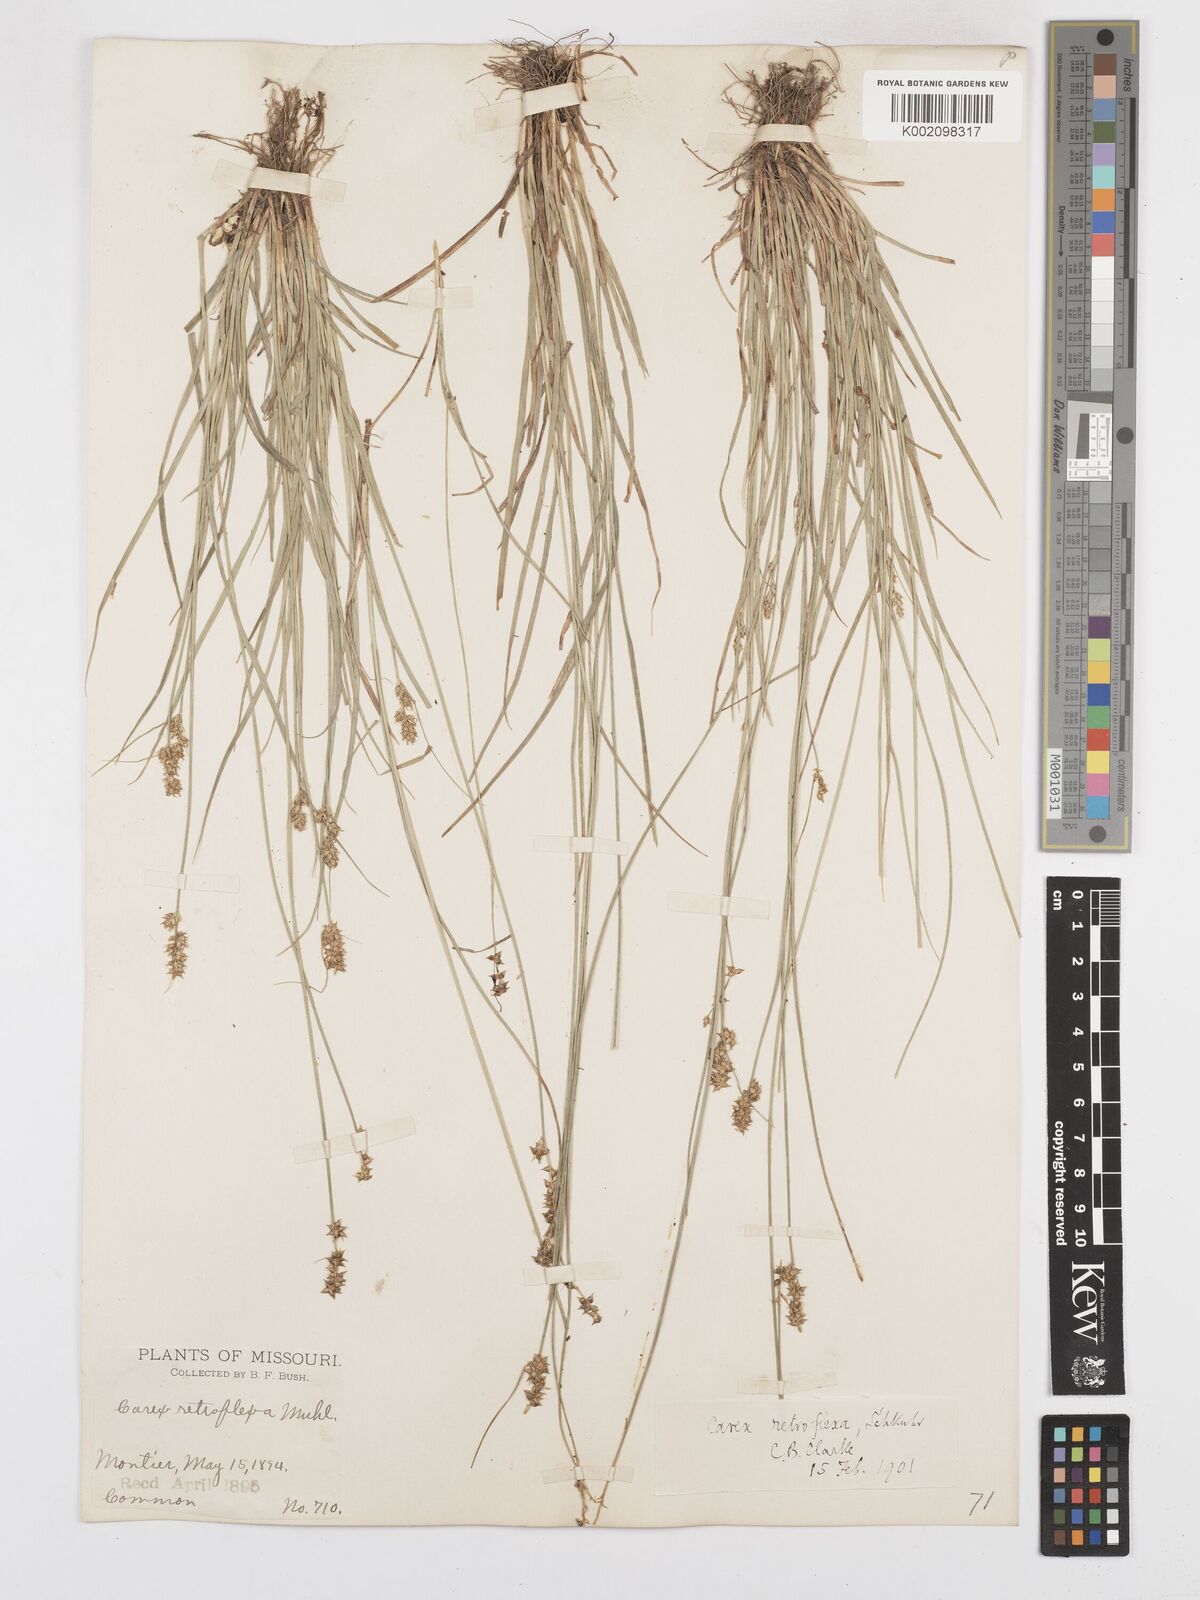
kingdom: Plantae
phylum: Tracheophyta
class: Liliopsida
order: Poales
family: Cyperaceae
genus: Carex
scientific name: Carex retroflexa
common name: Reflexed sedge
